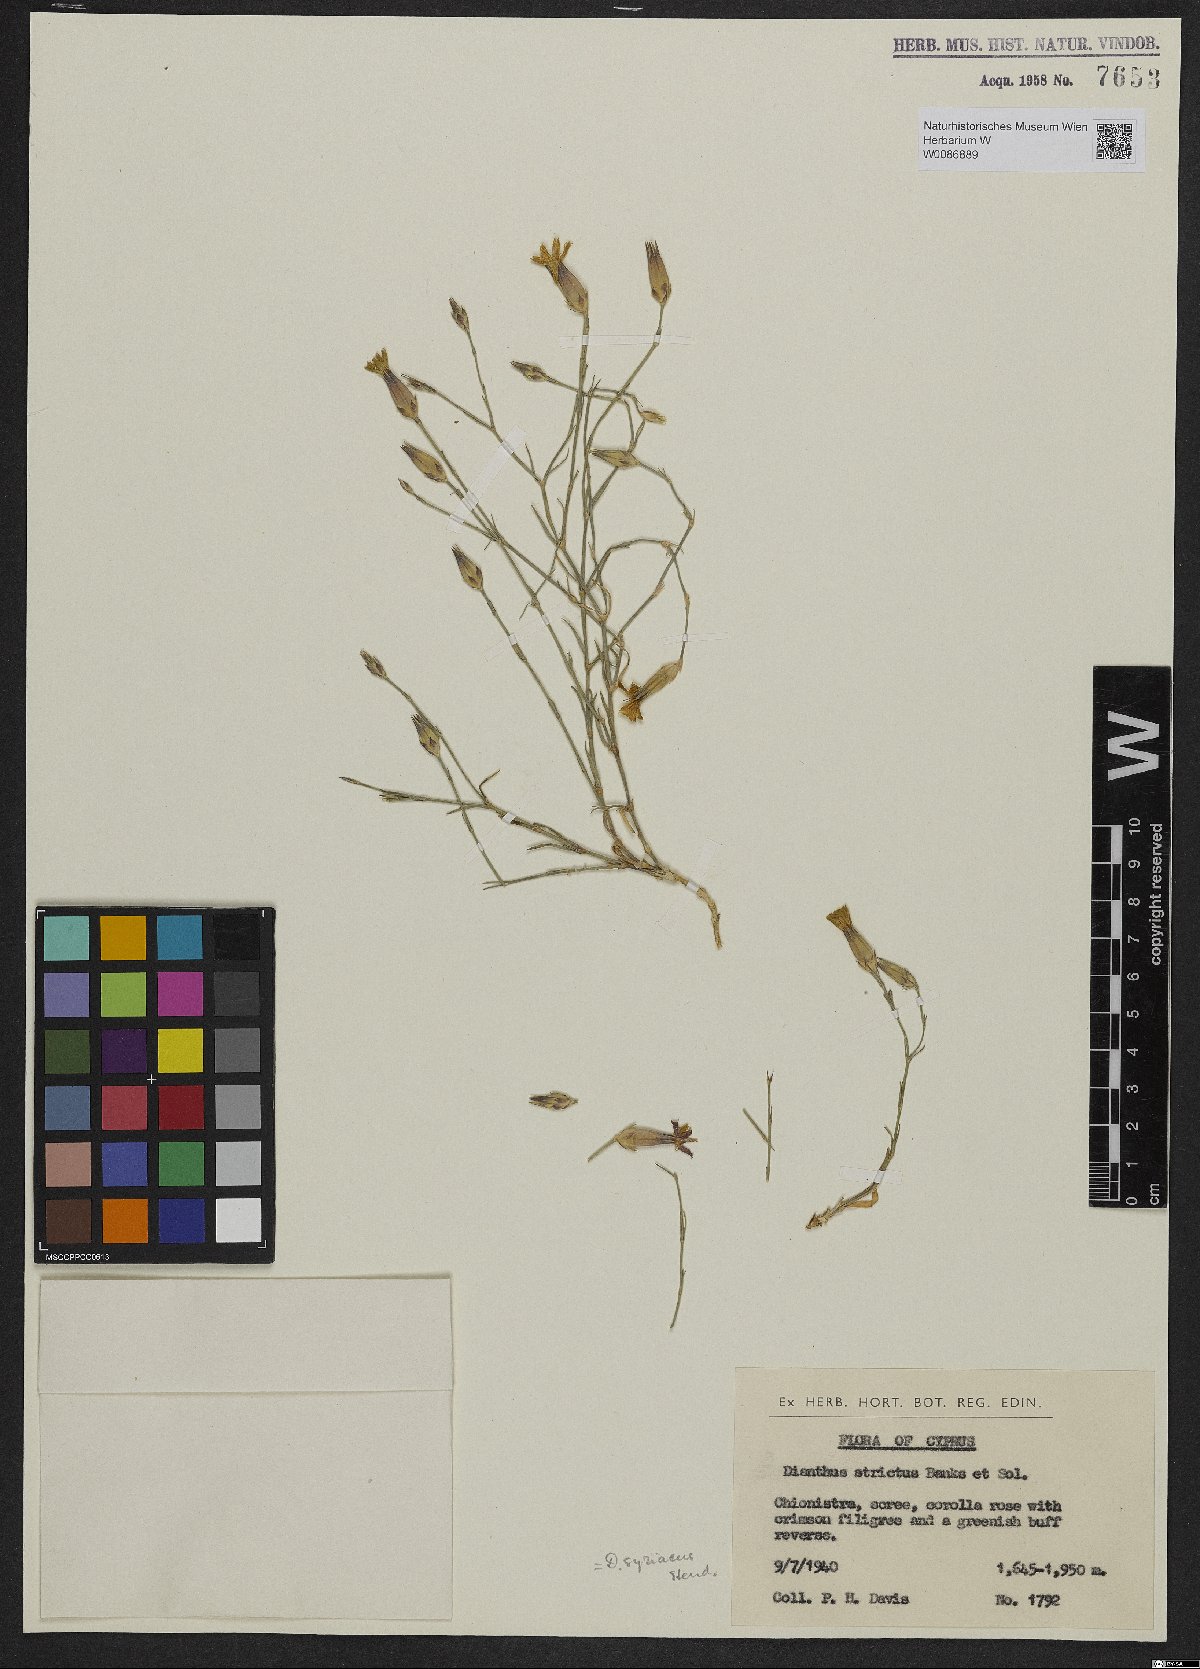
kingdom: Plantae
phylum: Tracheophyta
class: Magnoliopsida
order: Caryophyllales
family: Caryophyllaceae
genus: Dianthus
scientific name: Dianthus syriacus
